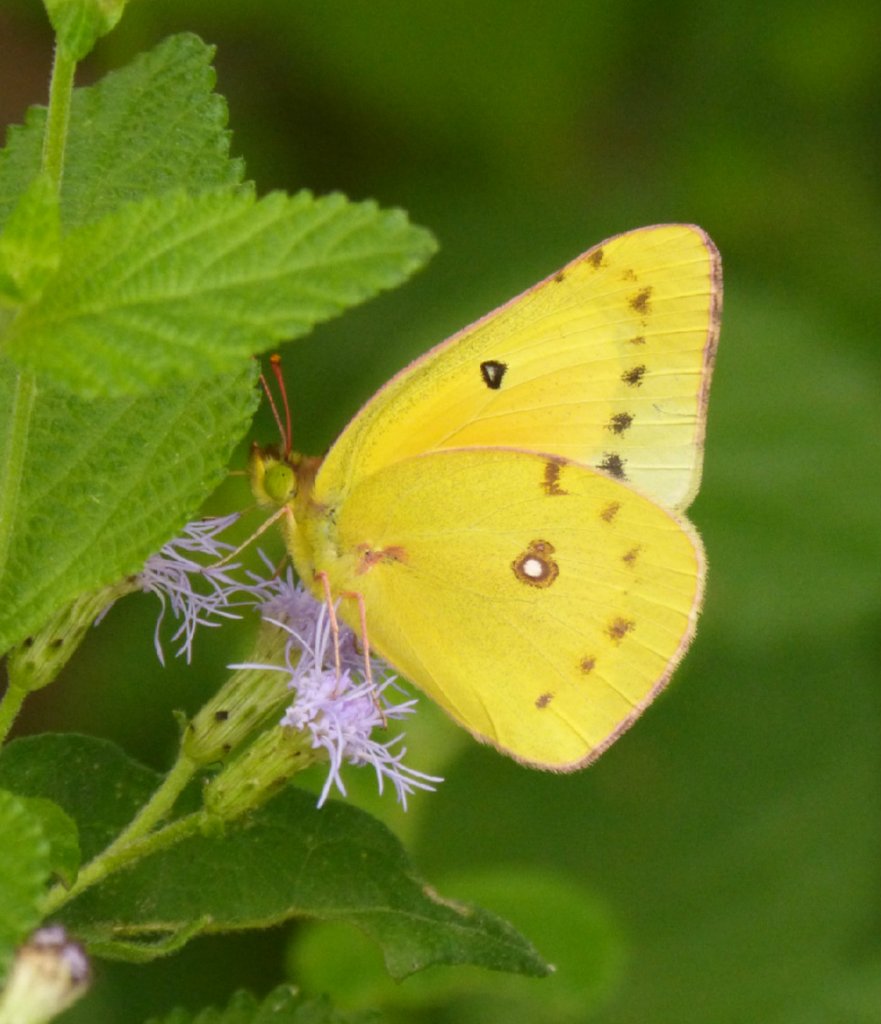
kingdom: Animalia
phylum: Arthropoda
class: Insecta
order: Lepidoptera
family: Pieridae
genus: Colias
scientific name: Colias eurytheme
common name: Orange Sulphur
